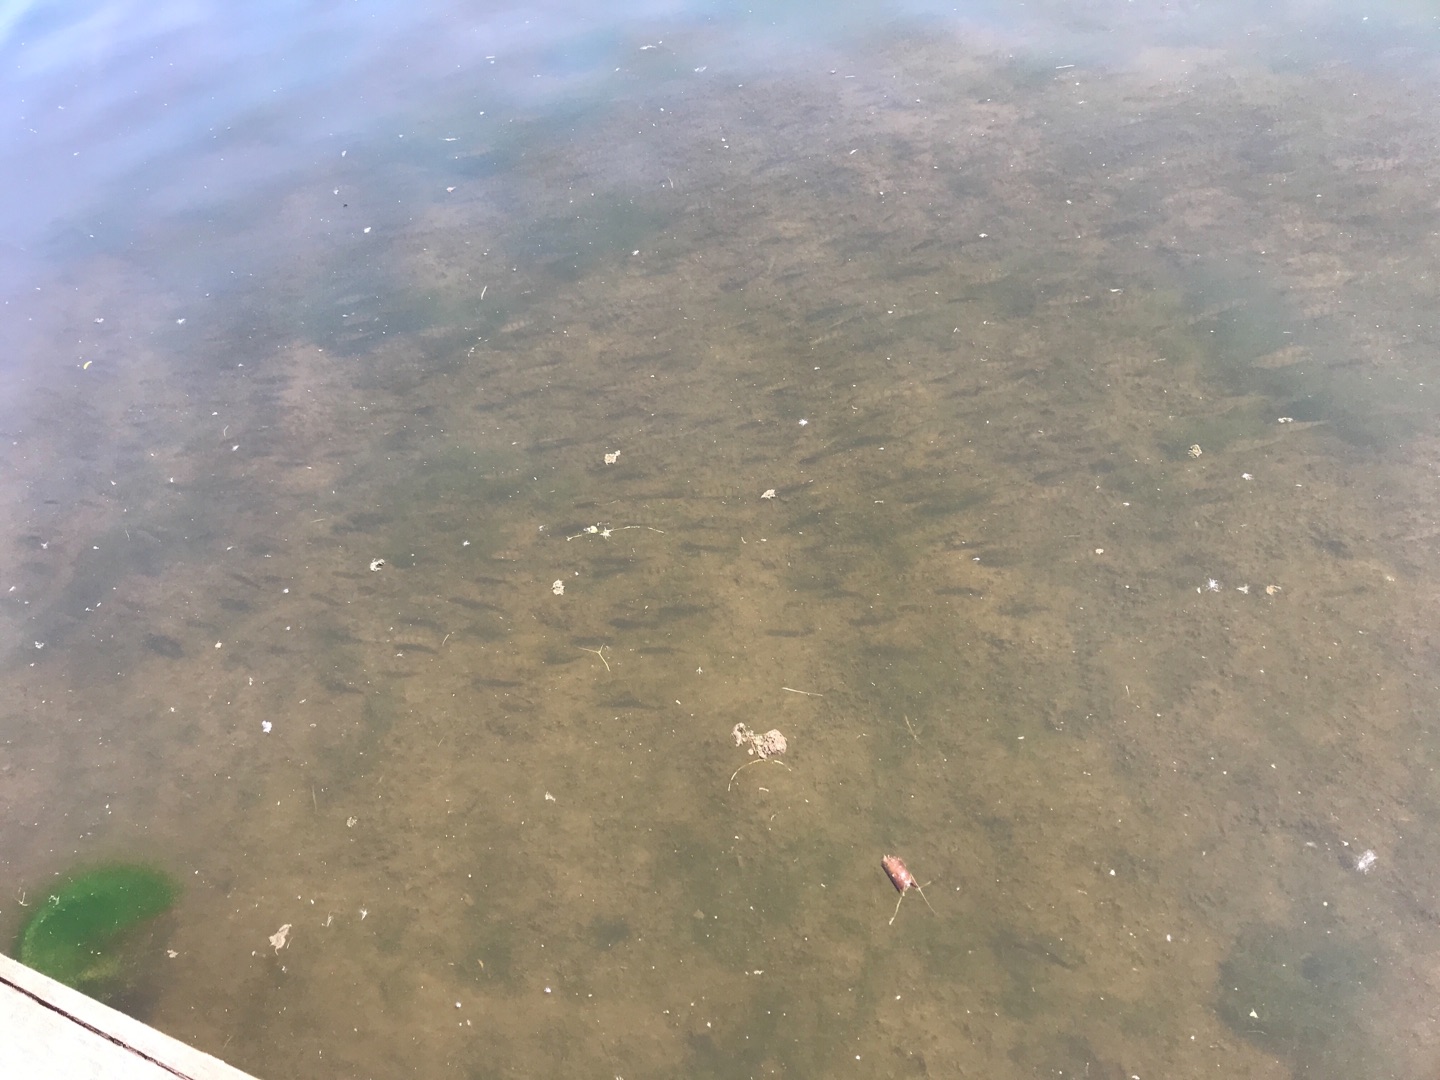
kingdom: Animalia
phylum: Chordata
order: Perciformes
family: Percidae
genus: Perca
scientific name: Perca fluviatilis
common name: Aborre
